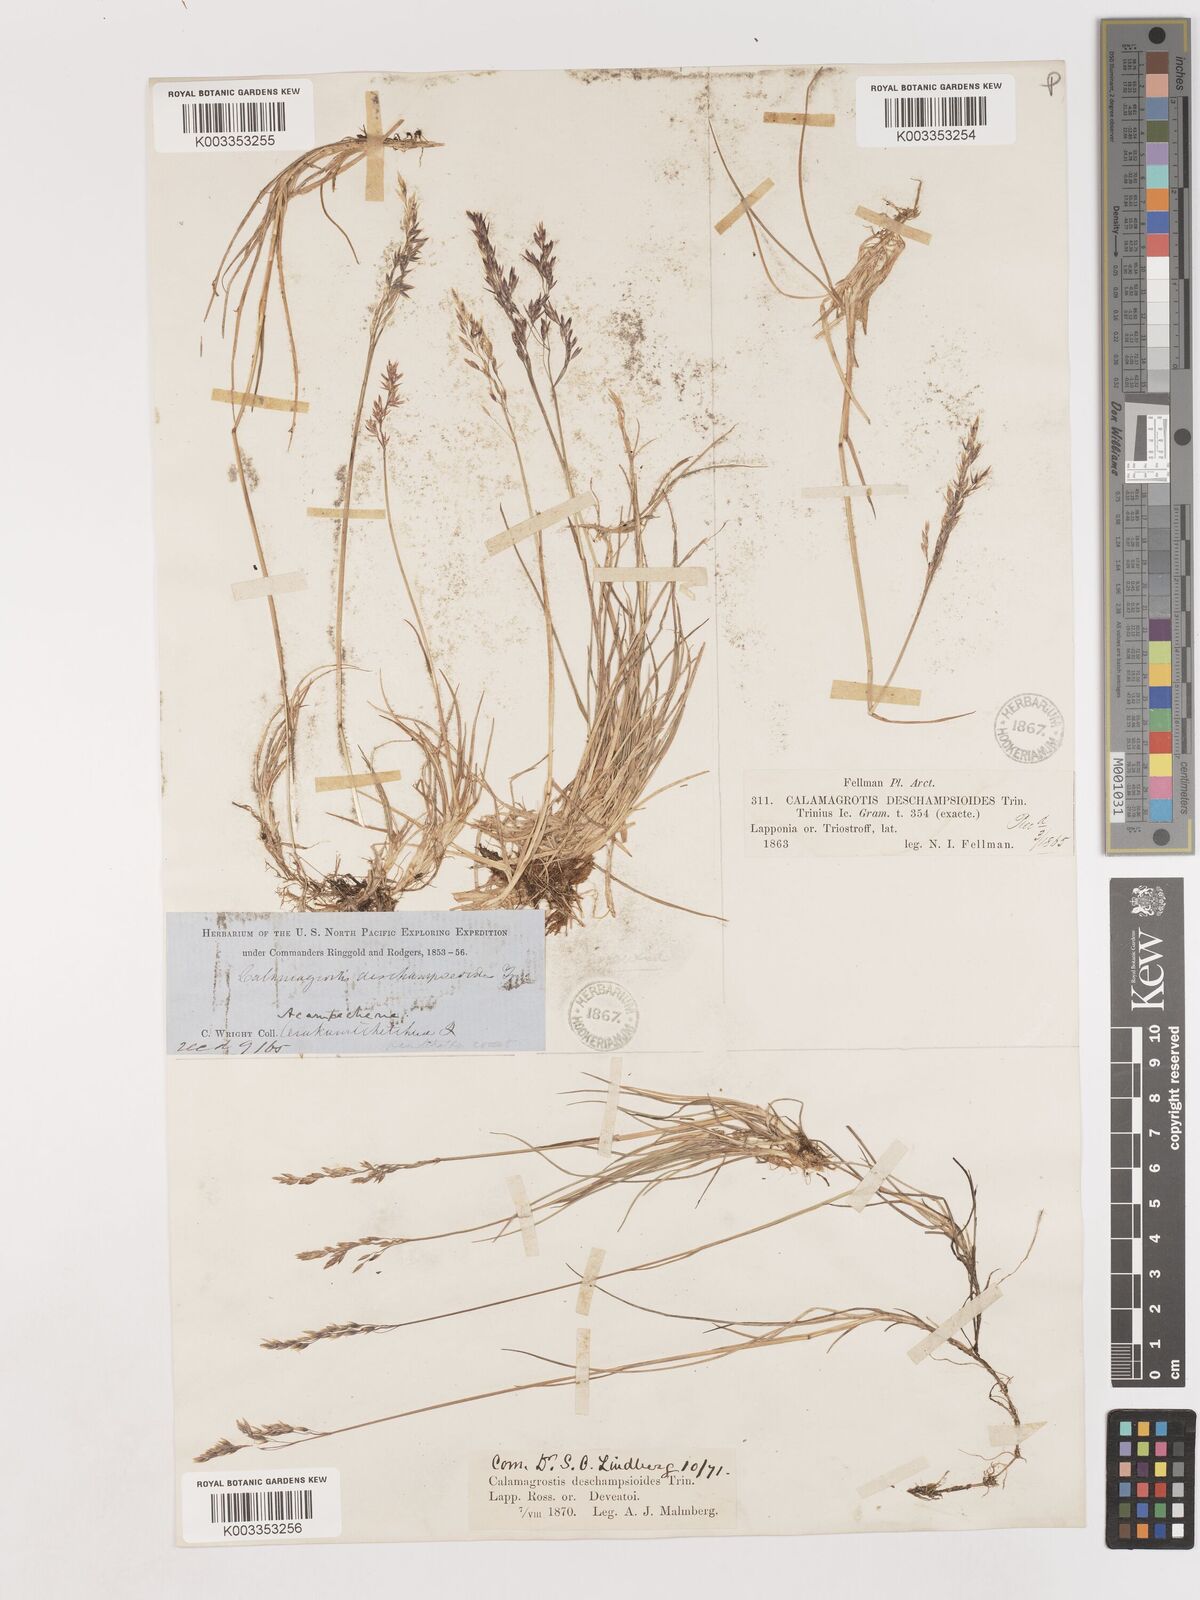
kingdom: Plantae
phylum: Tracheophyta
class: Liliopsida
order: Poales
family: Poaceae
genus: Calamagrostis
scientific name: Calamagrostis deschampsioides
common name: Circumpolar reedgrass
